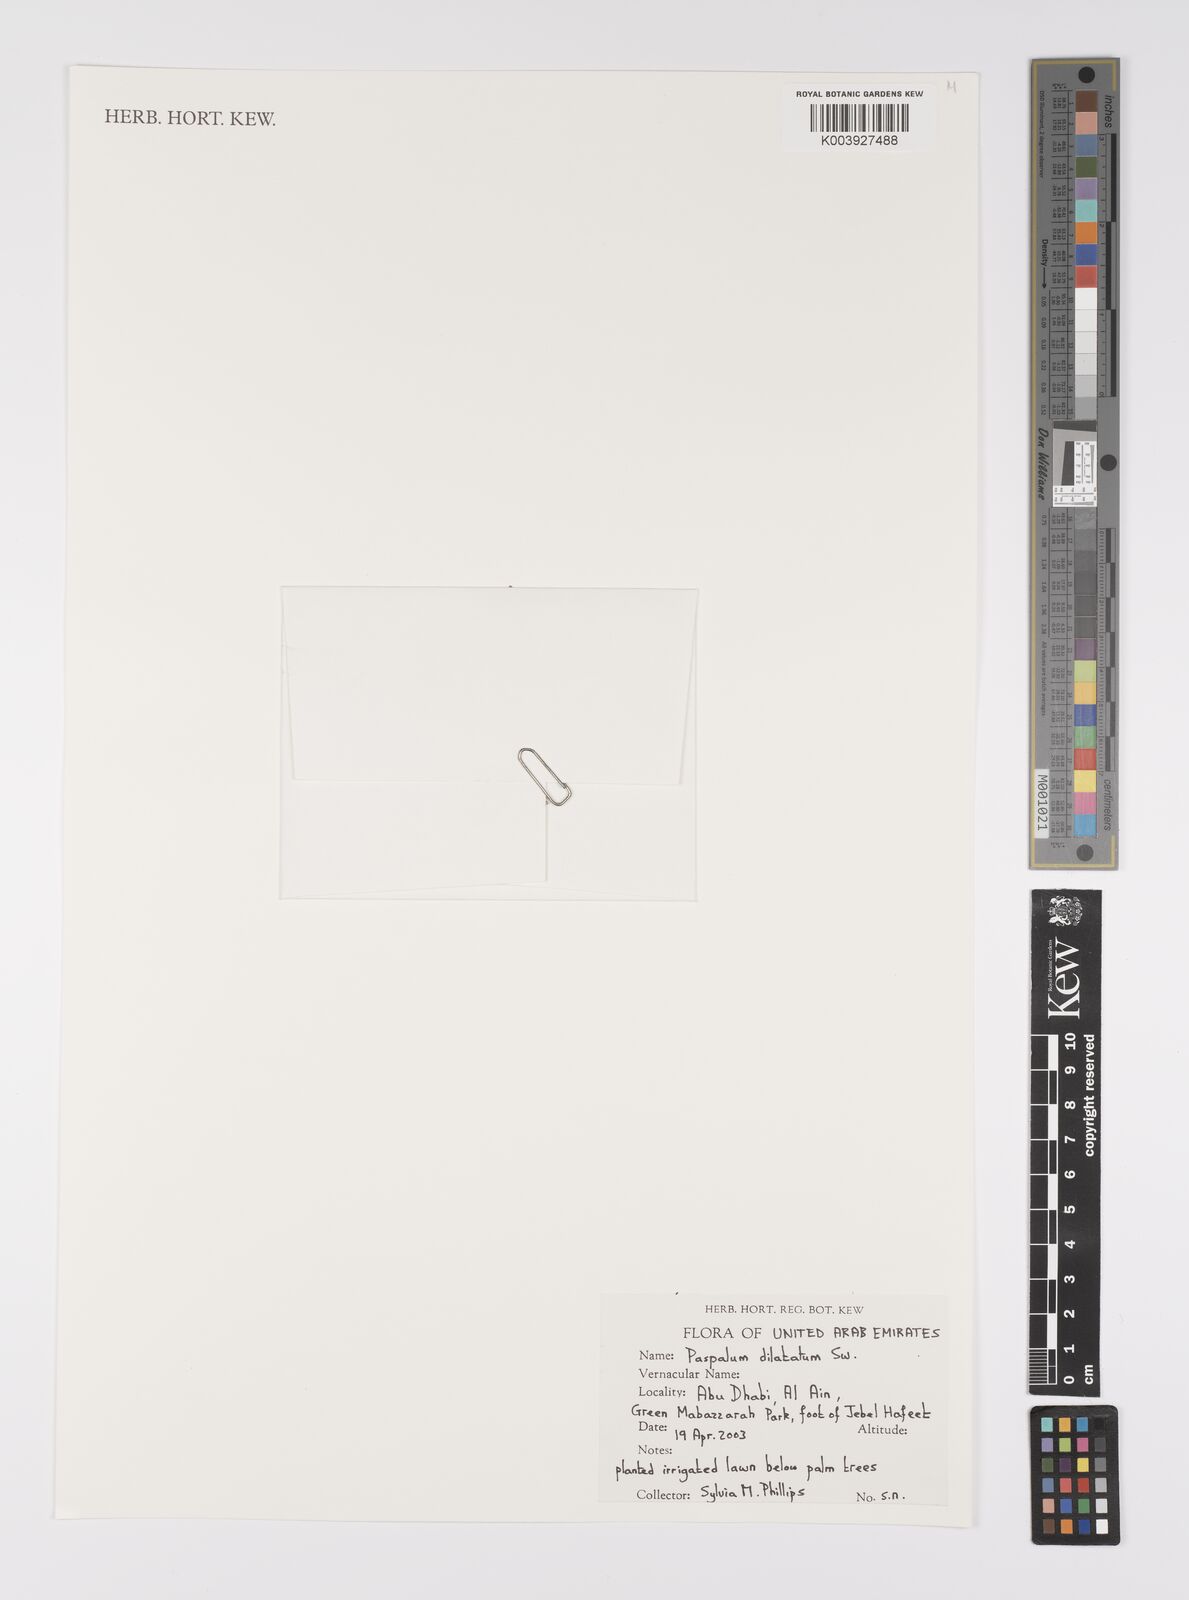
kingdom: Plantae
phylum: Tracheophyta
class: Liliopsida
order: Poales
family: Poaceae
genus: Paspalum
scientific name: Paspalum vaginatum
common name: Seashore paspalum
